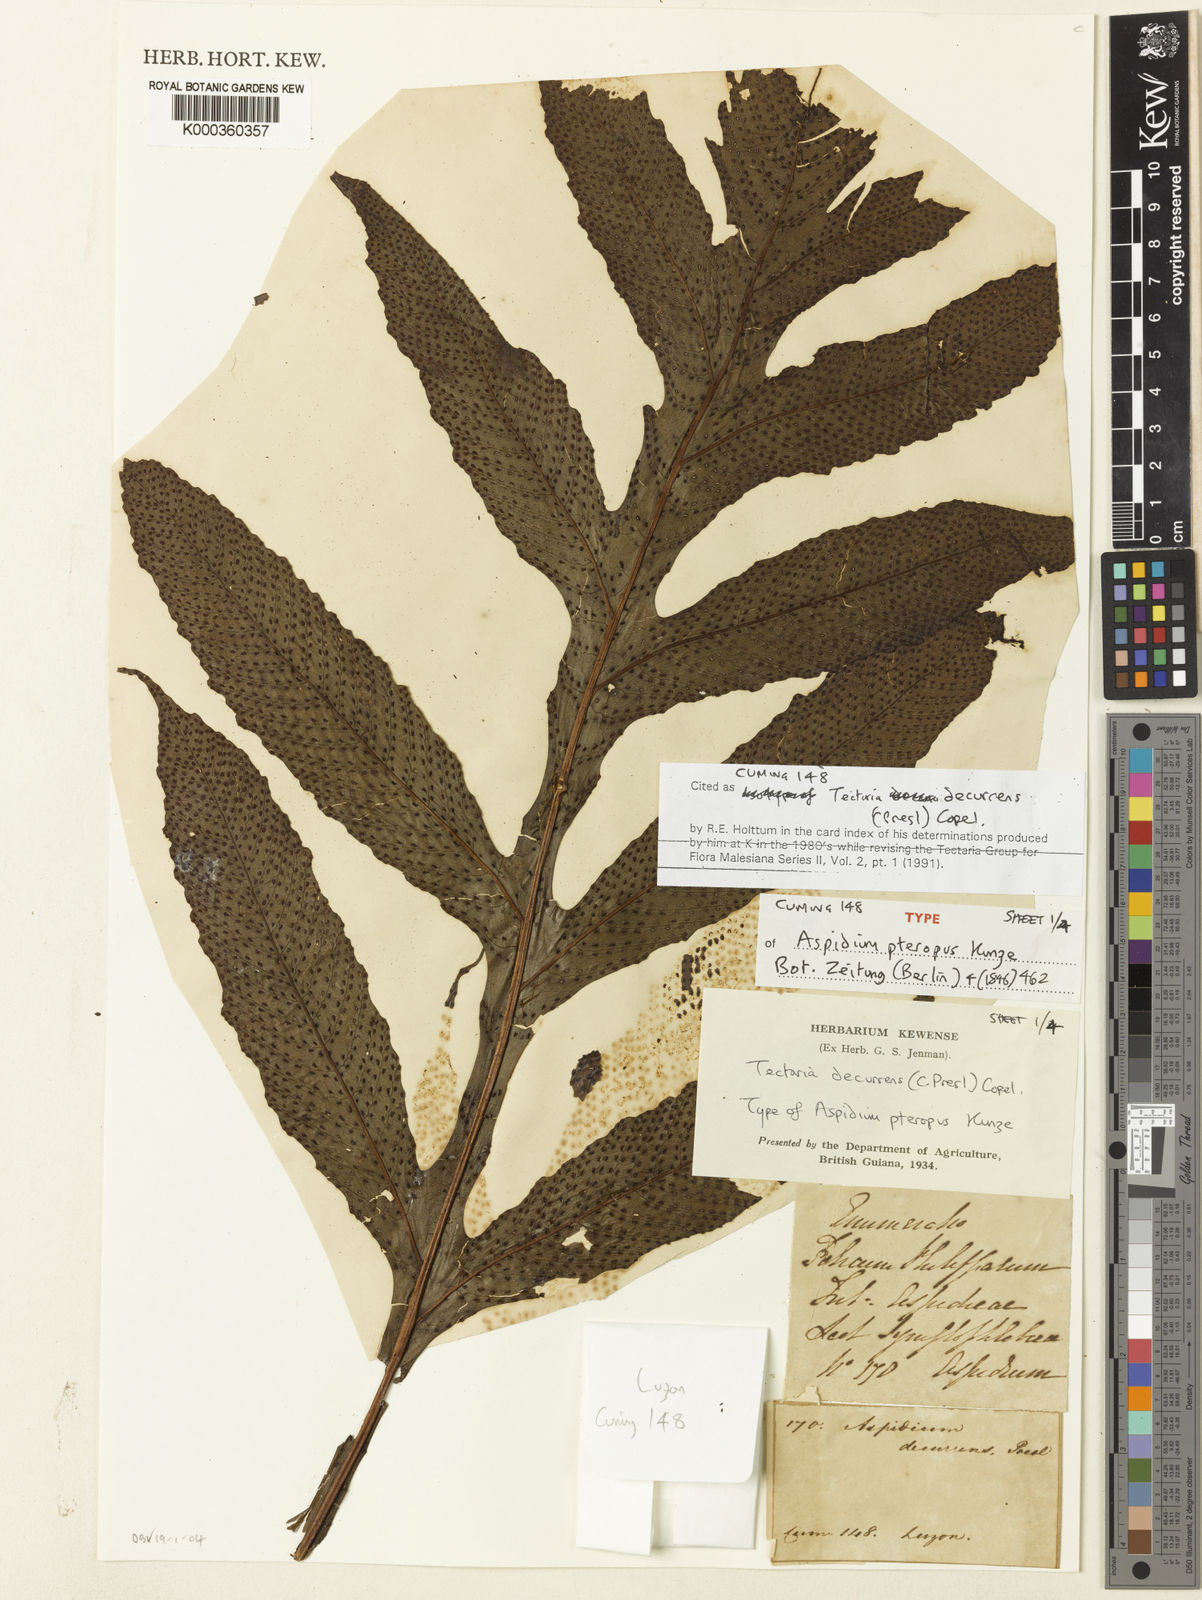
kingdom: Plantae
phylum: Tracheophyta
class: Polypodiopsida
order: Polypodiales
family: Tectariaceae
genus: Tectaria
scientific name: Tectaria decurrens
